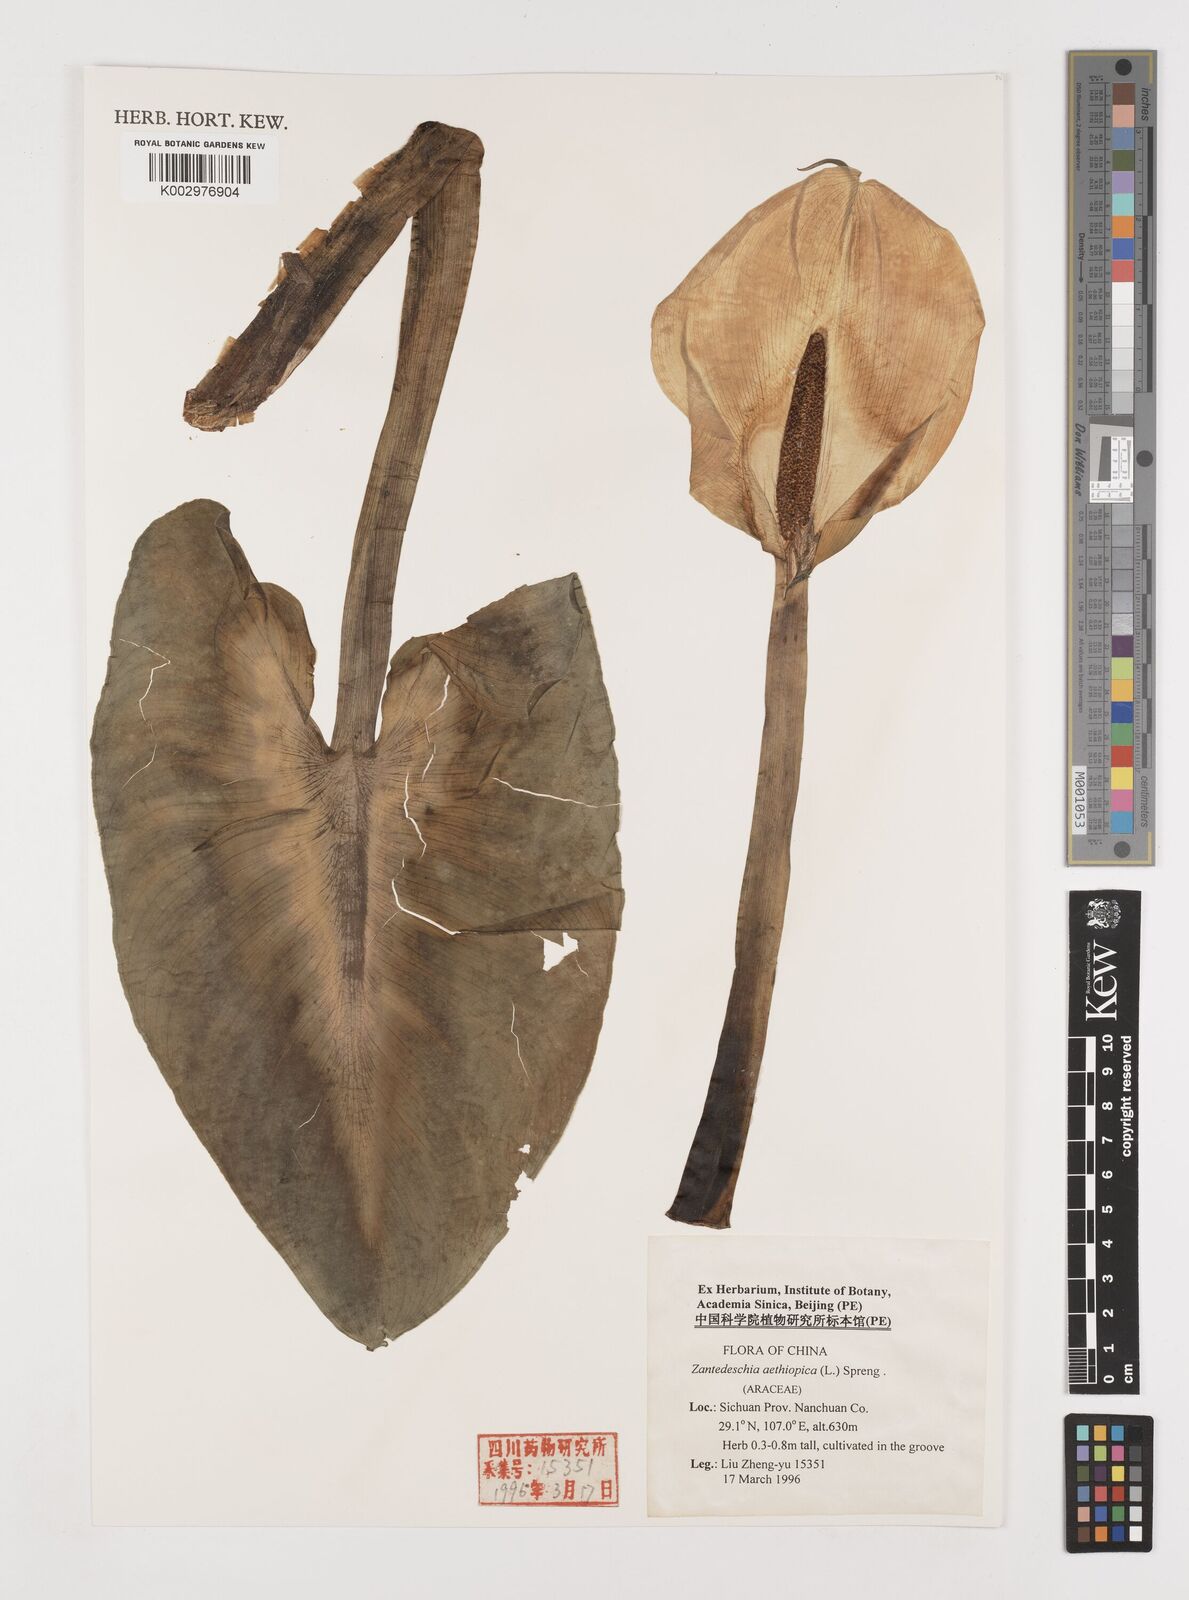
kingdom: Plantae
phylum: Tracheophyta
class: Liliopsida
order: Alismatales
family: Araceae
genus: Zantedeschia
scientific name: Zantedeschia aethiopica
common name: Altar-lily
